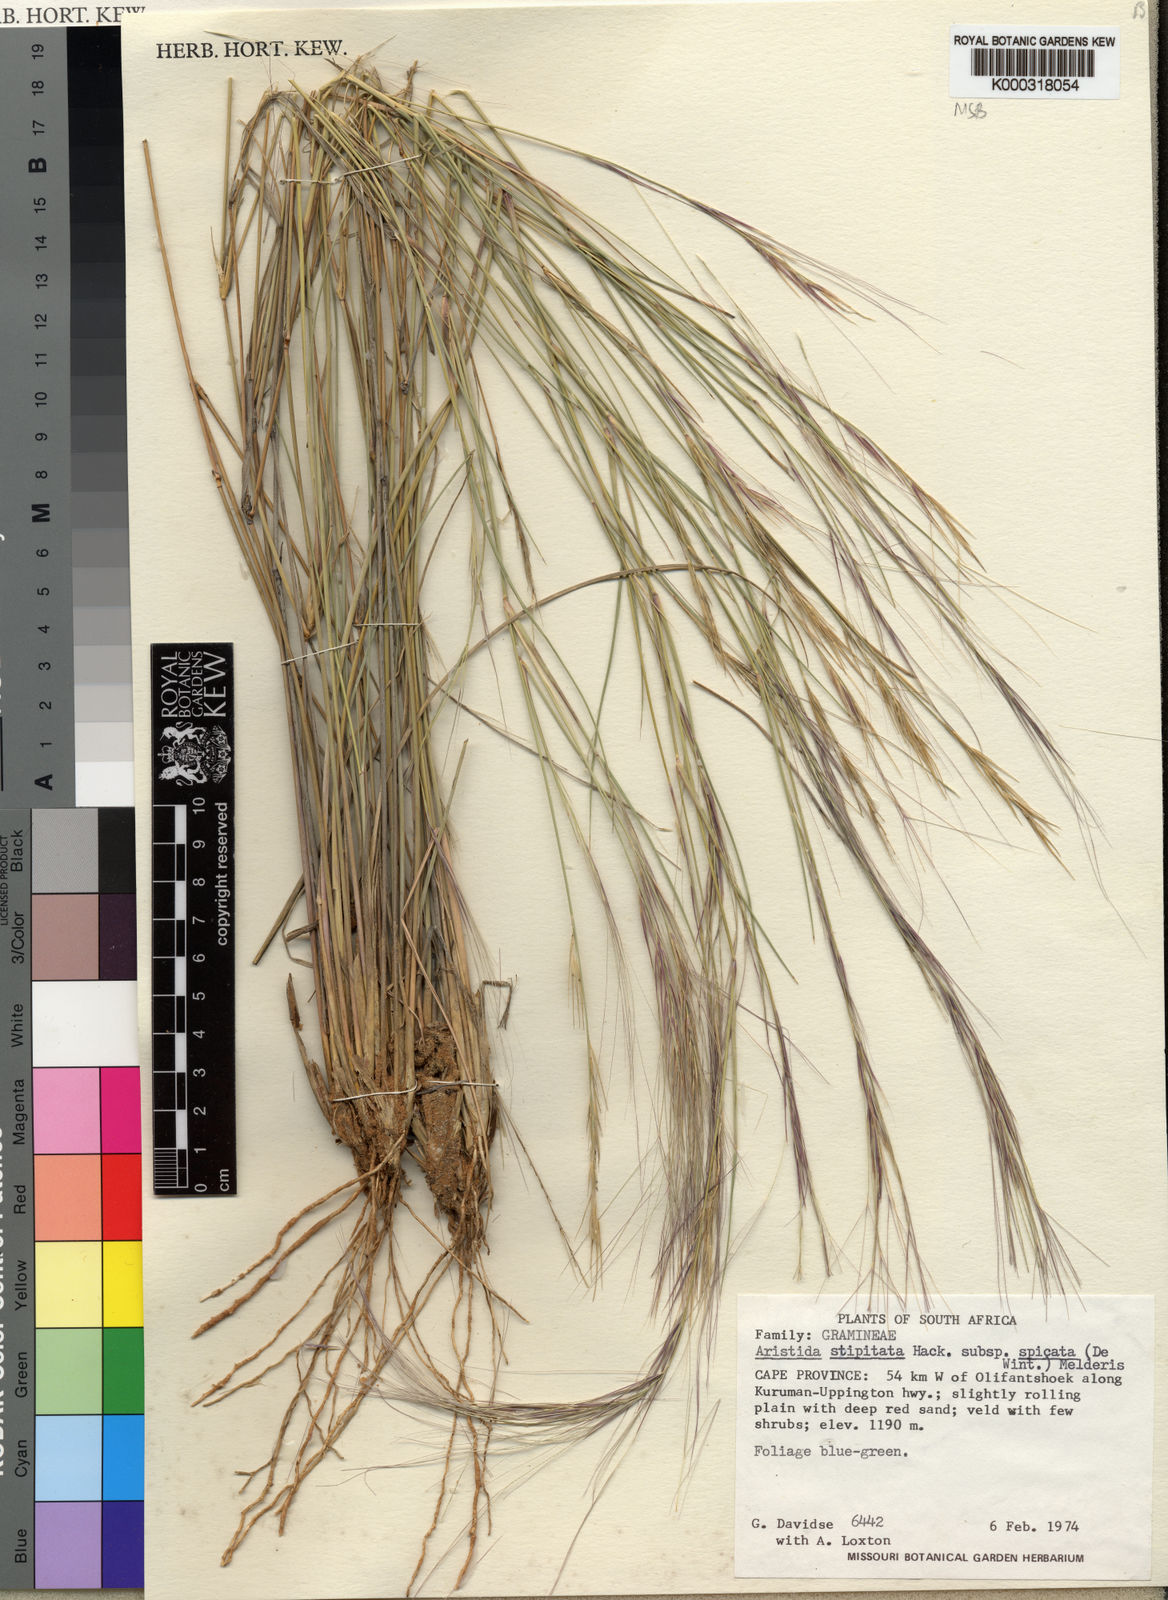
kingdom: Plantae
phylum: Tracheophyta
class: Liliopsida
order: Poales
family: Poaceae
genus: Aristida
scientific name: Aristida stipitata
